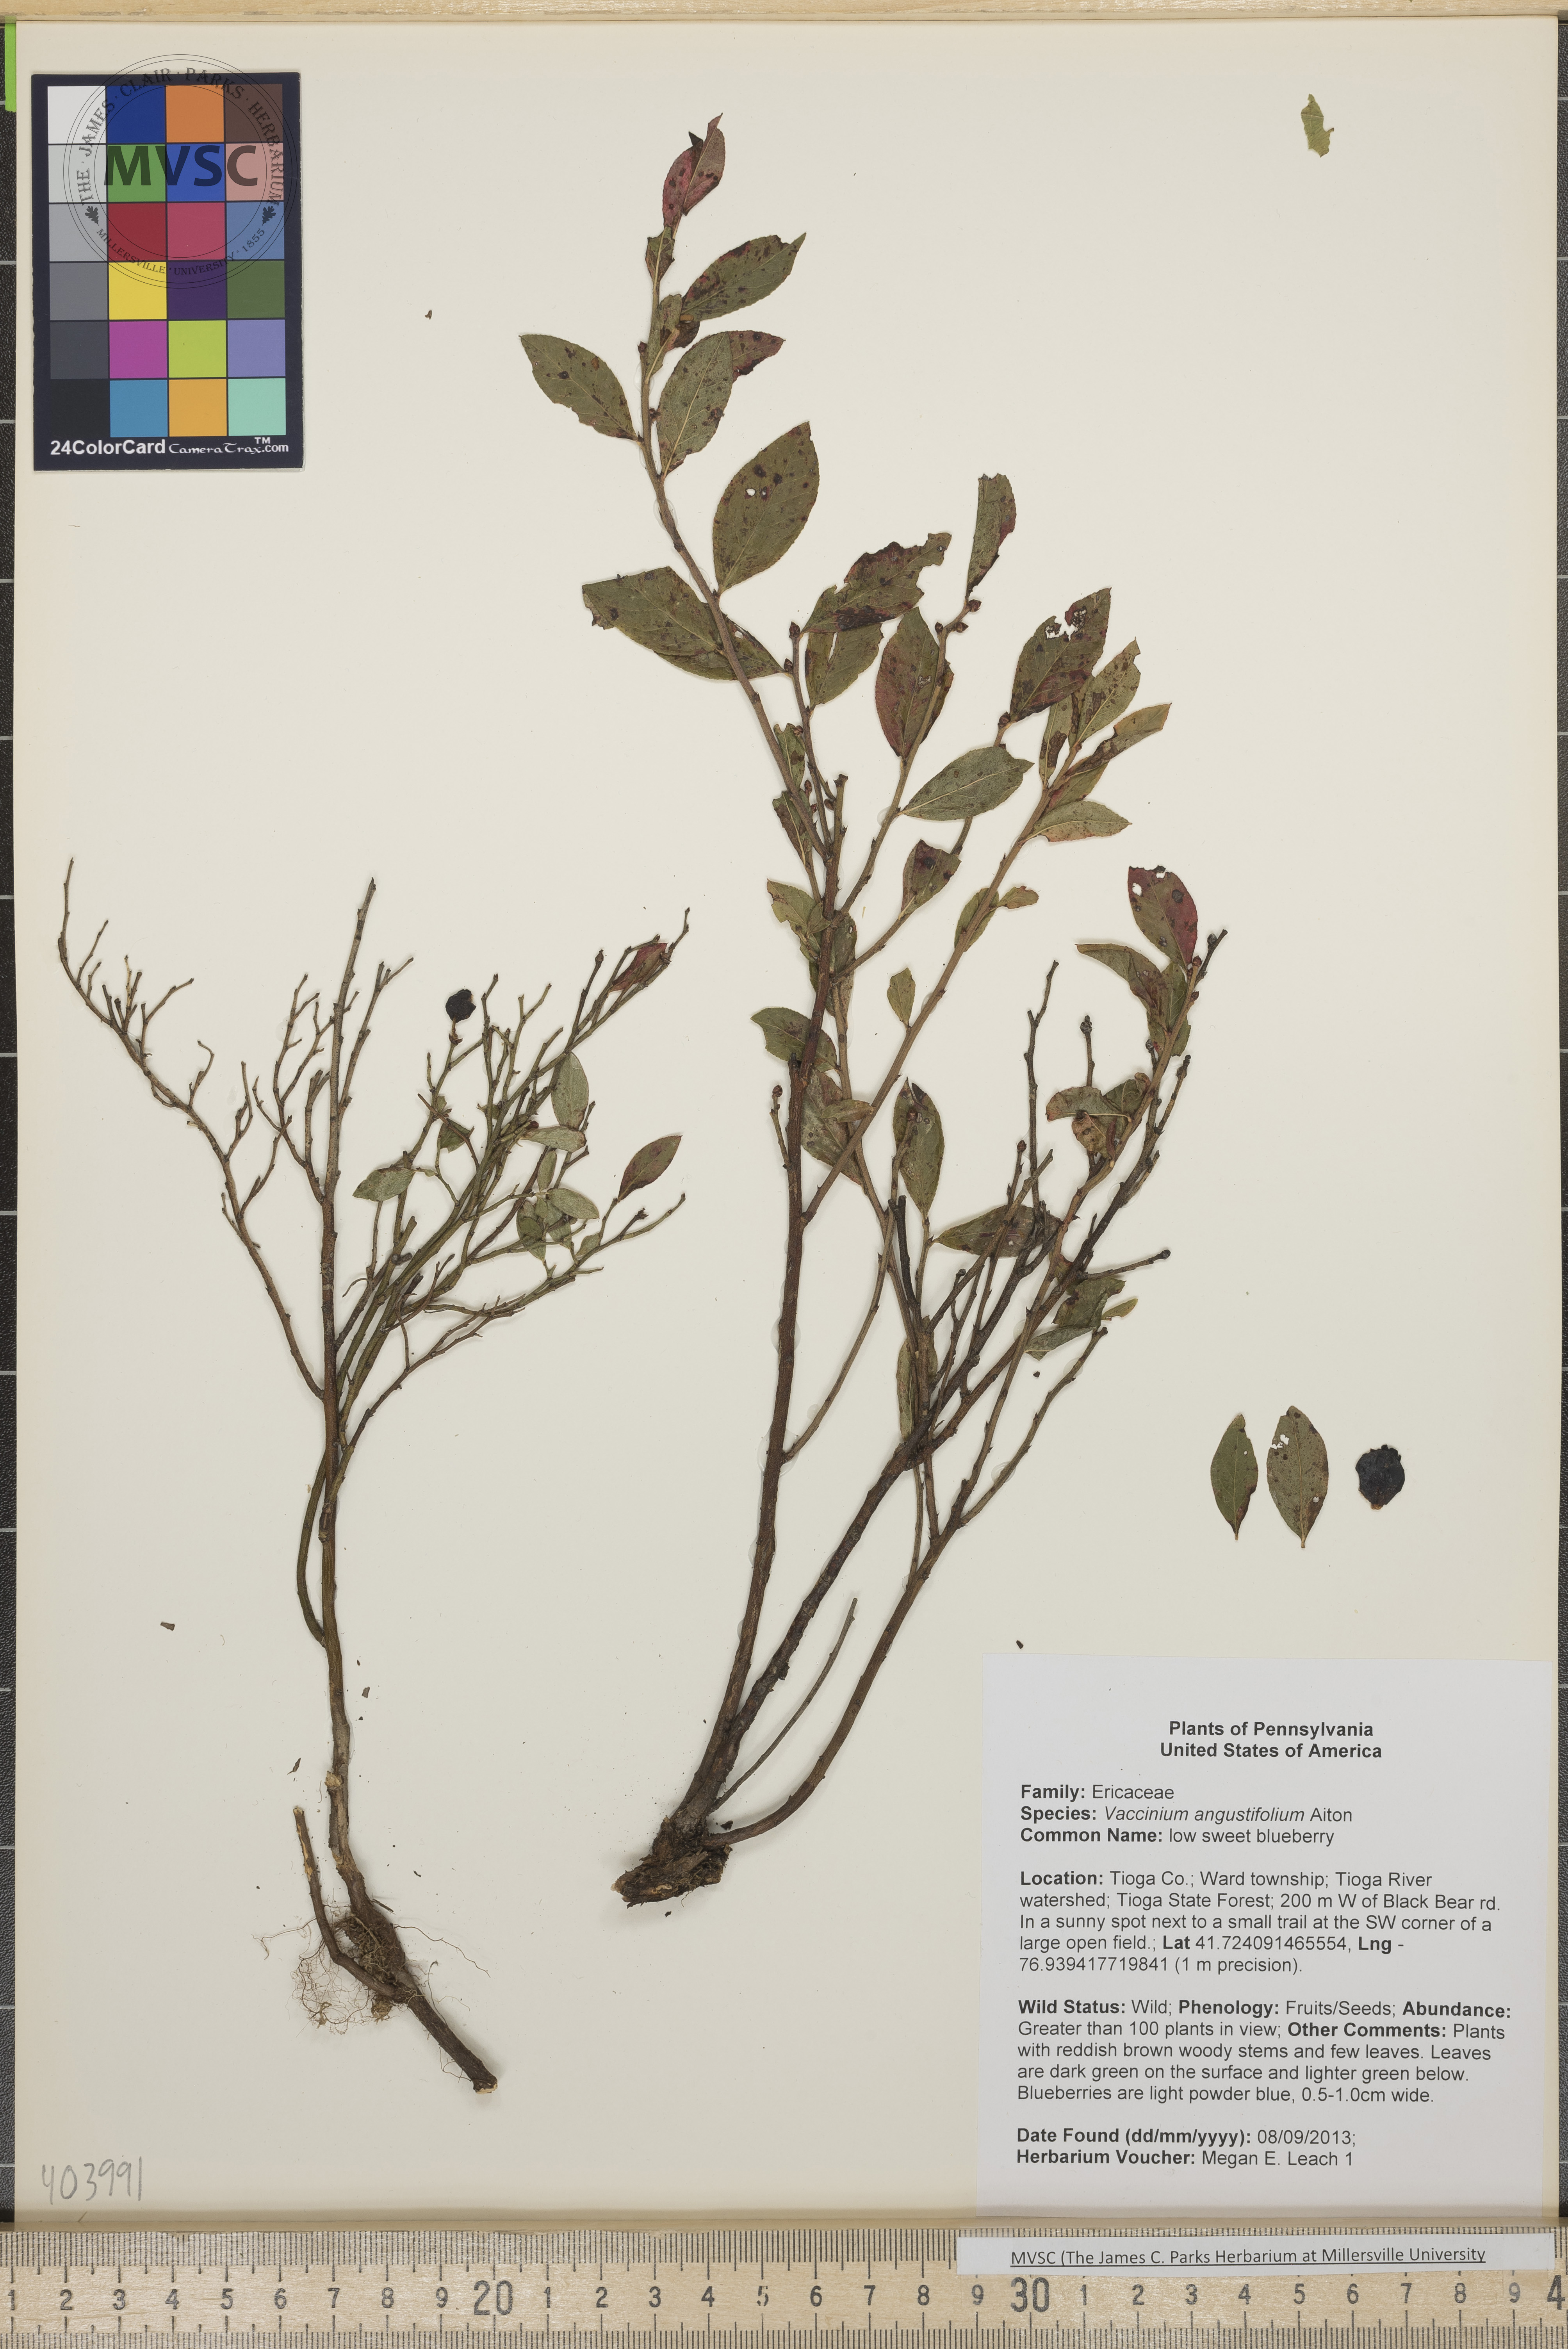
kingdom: Plantae
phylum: Tracheophyta
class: Magnoliopsida
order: Ericales
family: Ericaceae
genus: Vaccinium
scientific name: Vaccinium angustifolium
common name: low sweet blueberry
